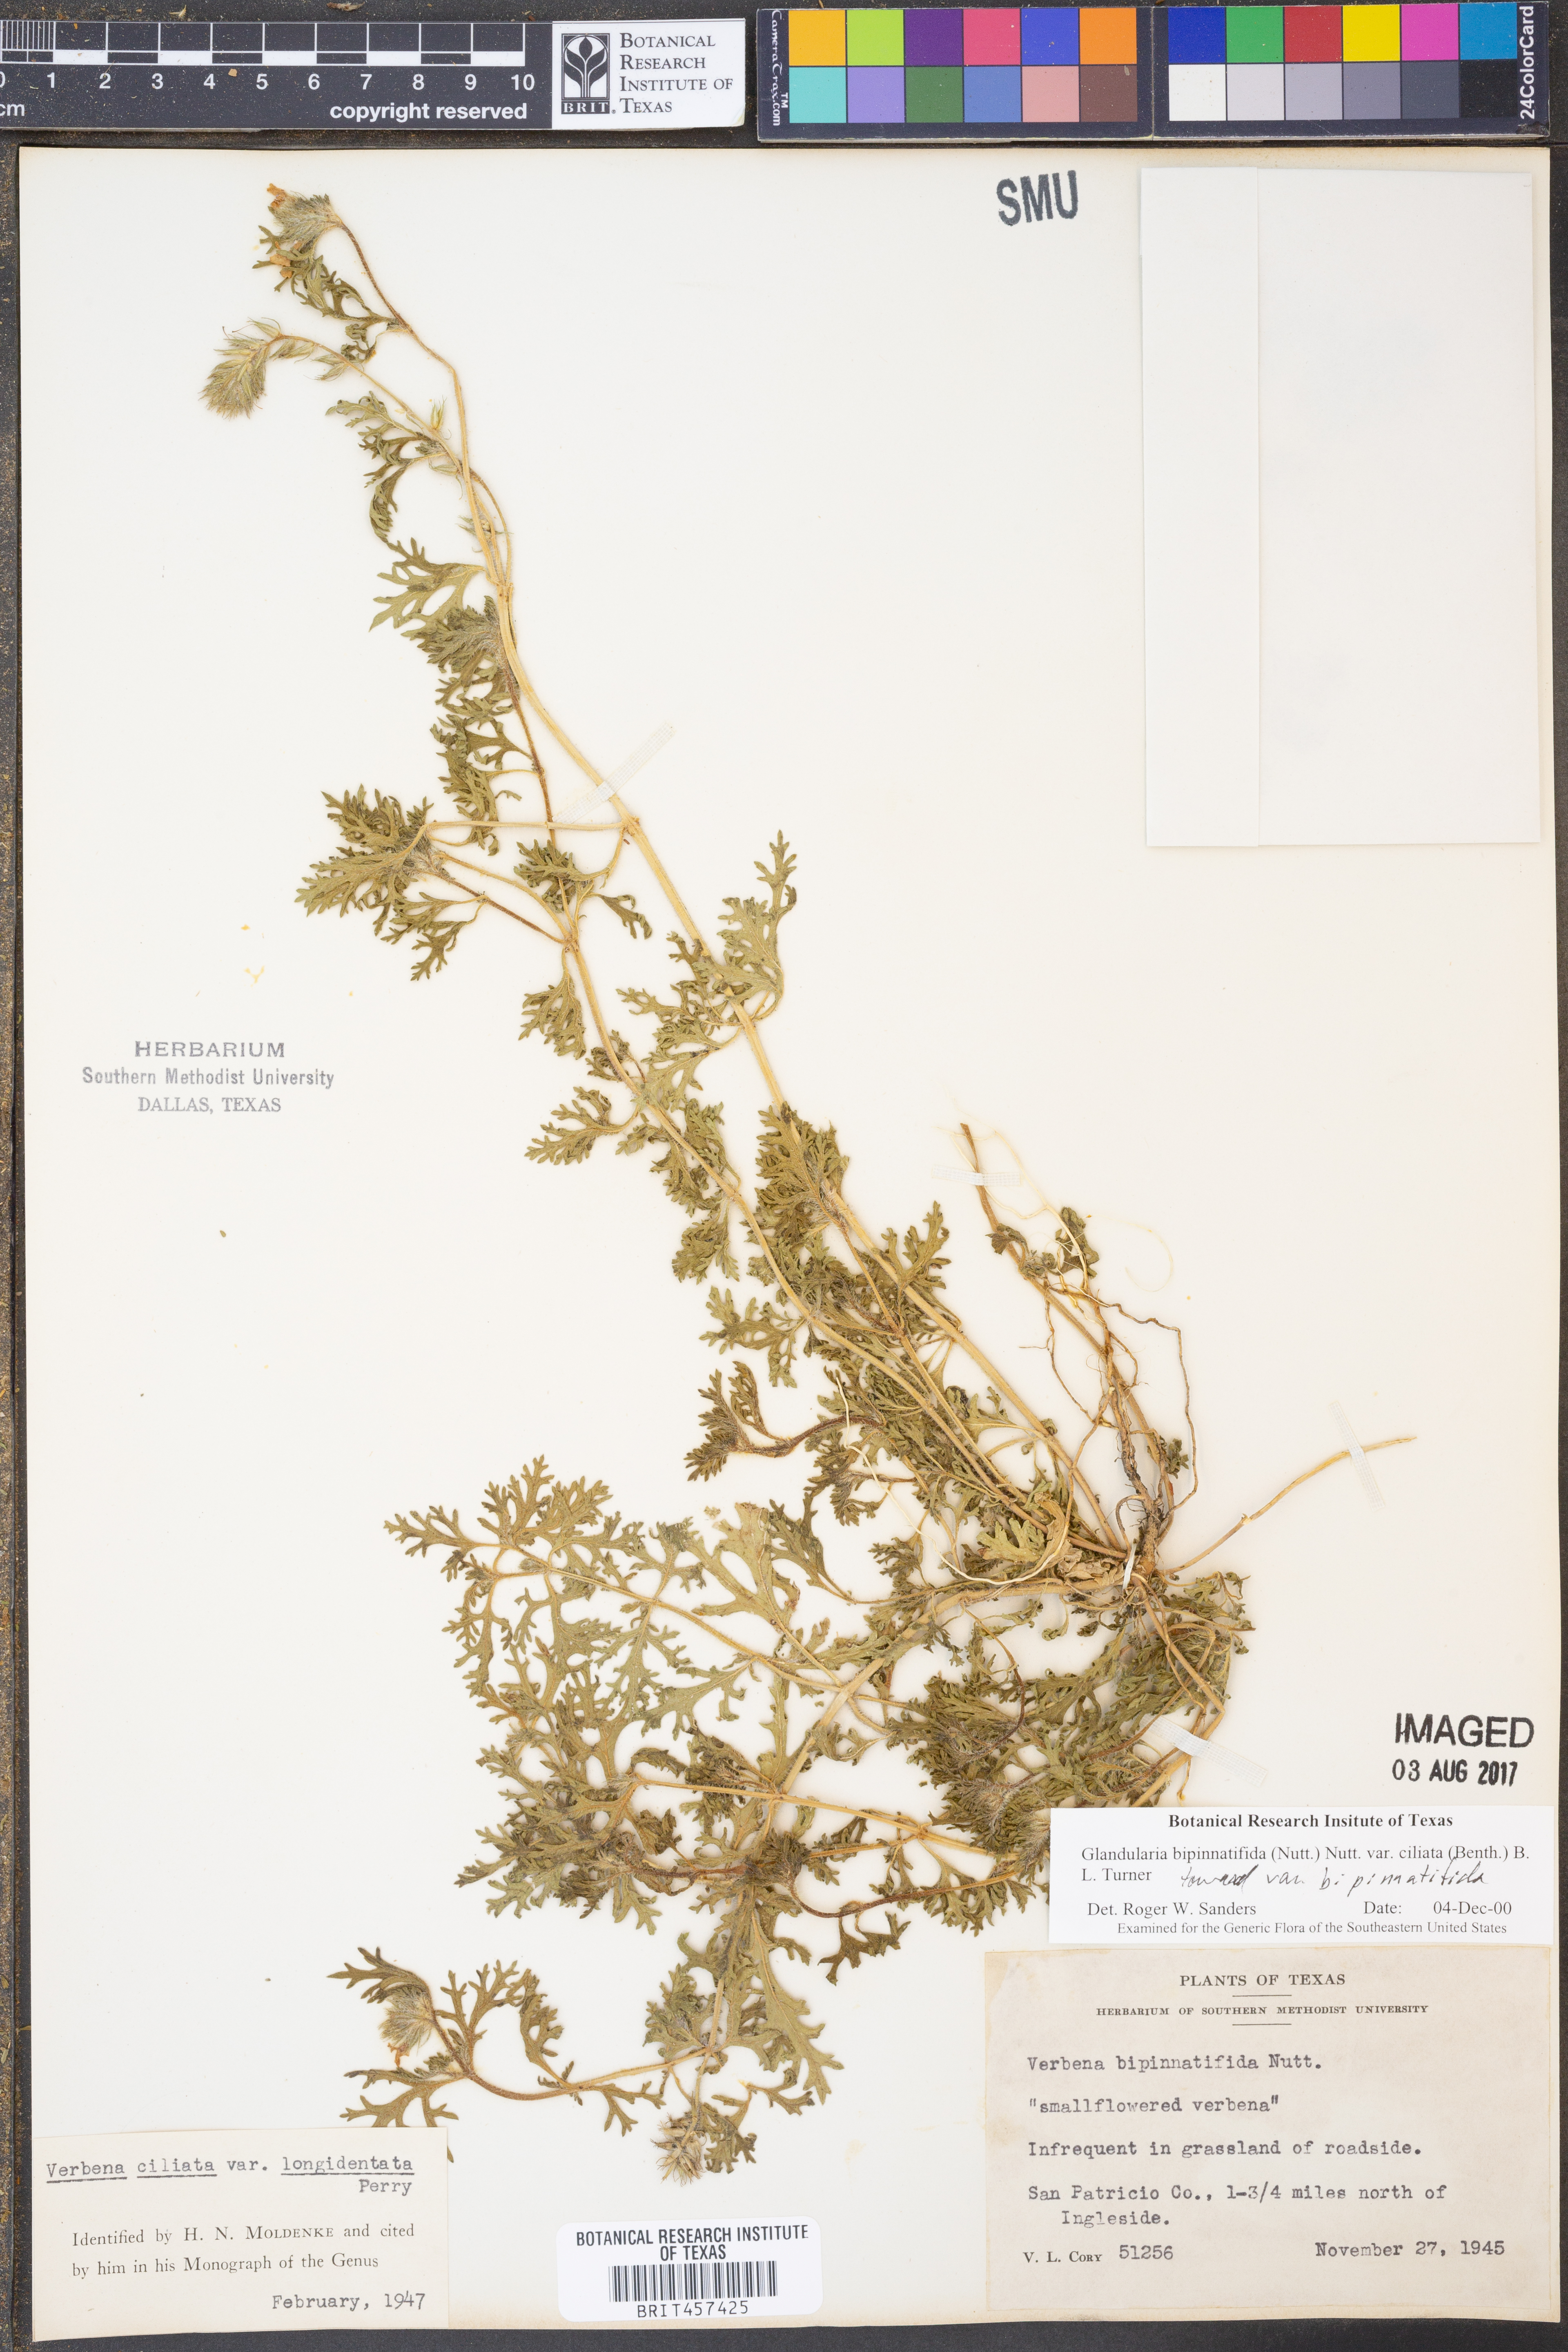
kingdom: Plantae
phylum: Tracheophyta
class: Magnoliopsida
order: Lamiales
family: Verbenaceae
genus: Verbena
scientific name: Verbena bipinnatifida
